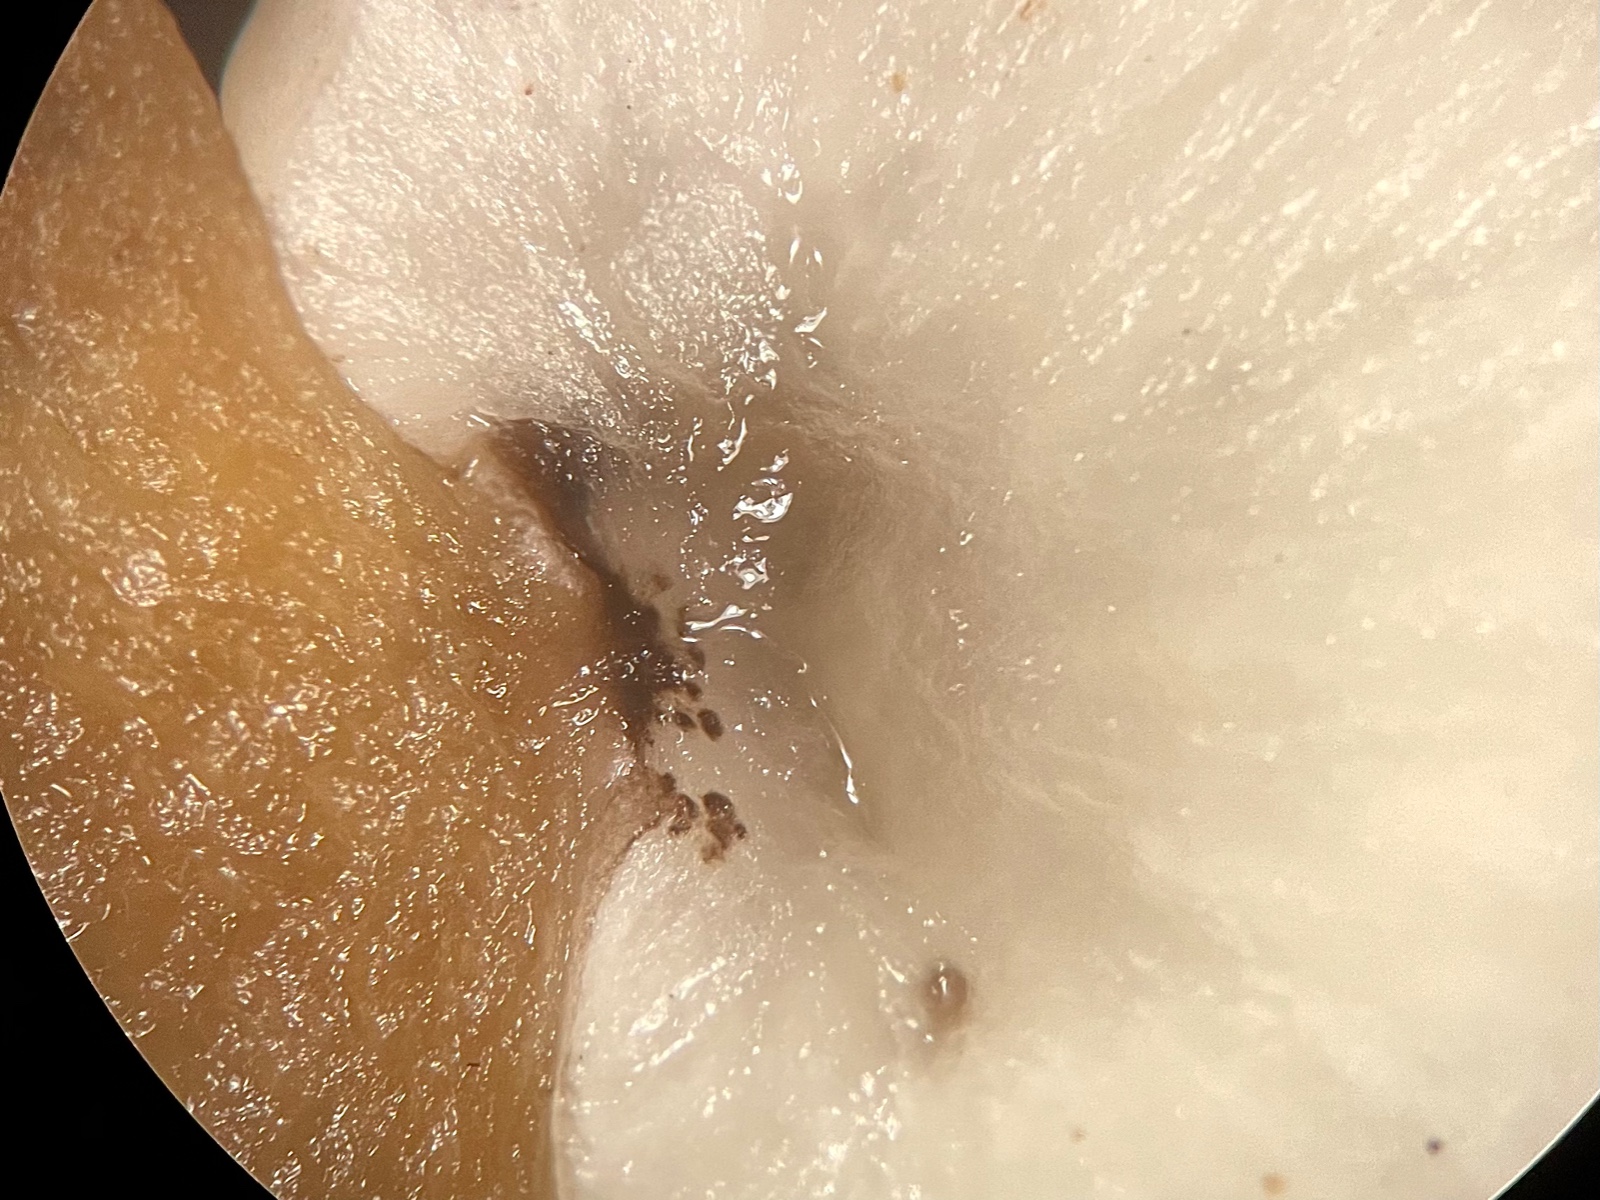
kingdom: Fungi
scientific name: Fungi
